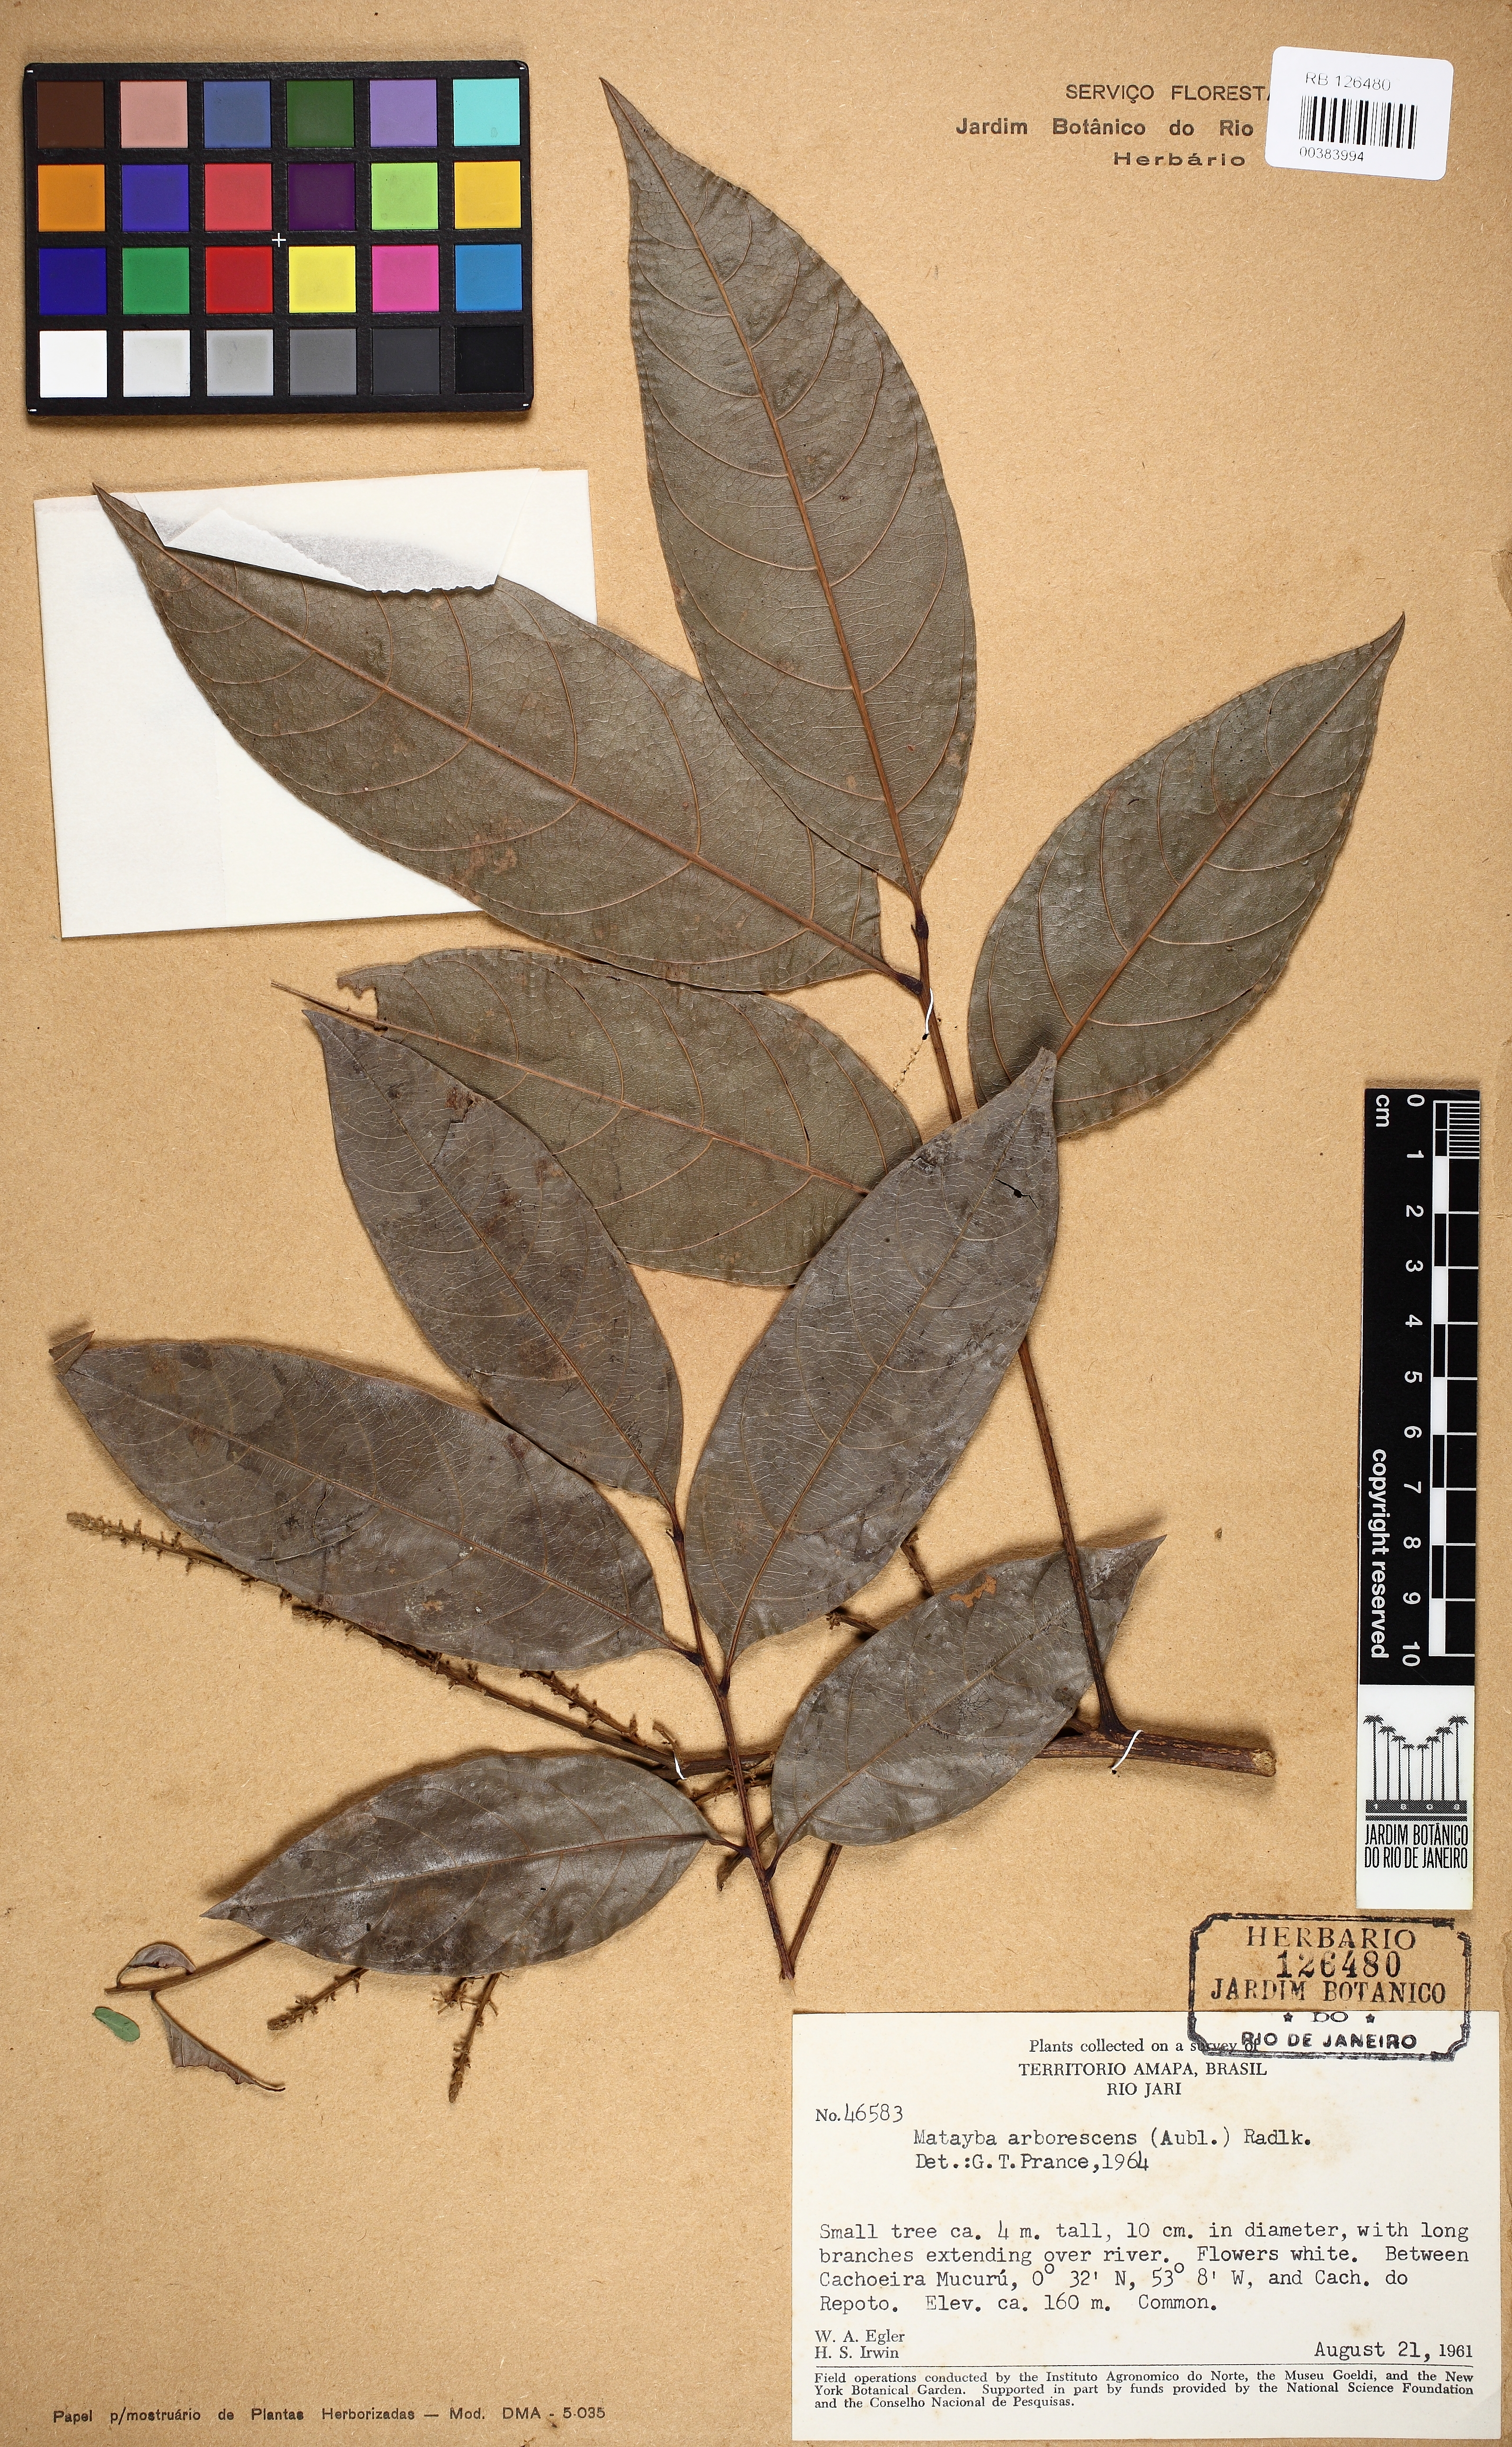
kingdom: Plantae
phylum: Tracheophyta
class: Magnoliopsida
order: Sapindales
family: Sapindaceae
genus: Matayba
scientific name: Matayba arborescens
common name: Arborescent matayba
